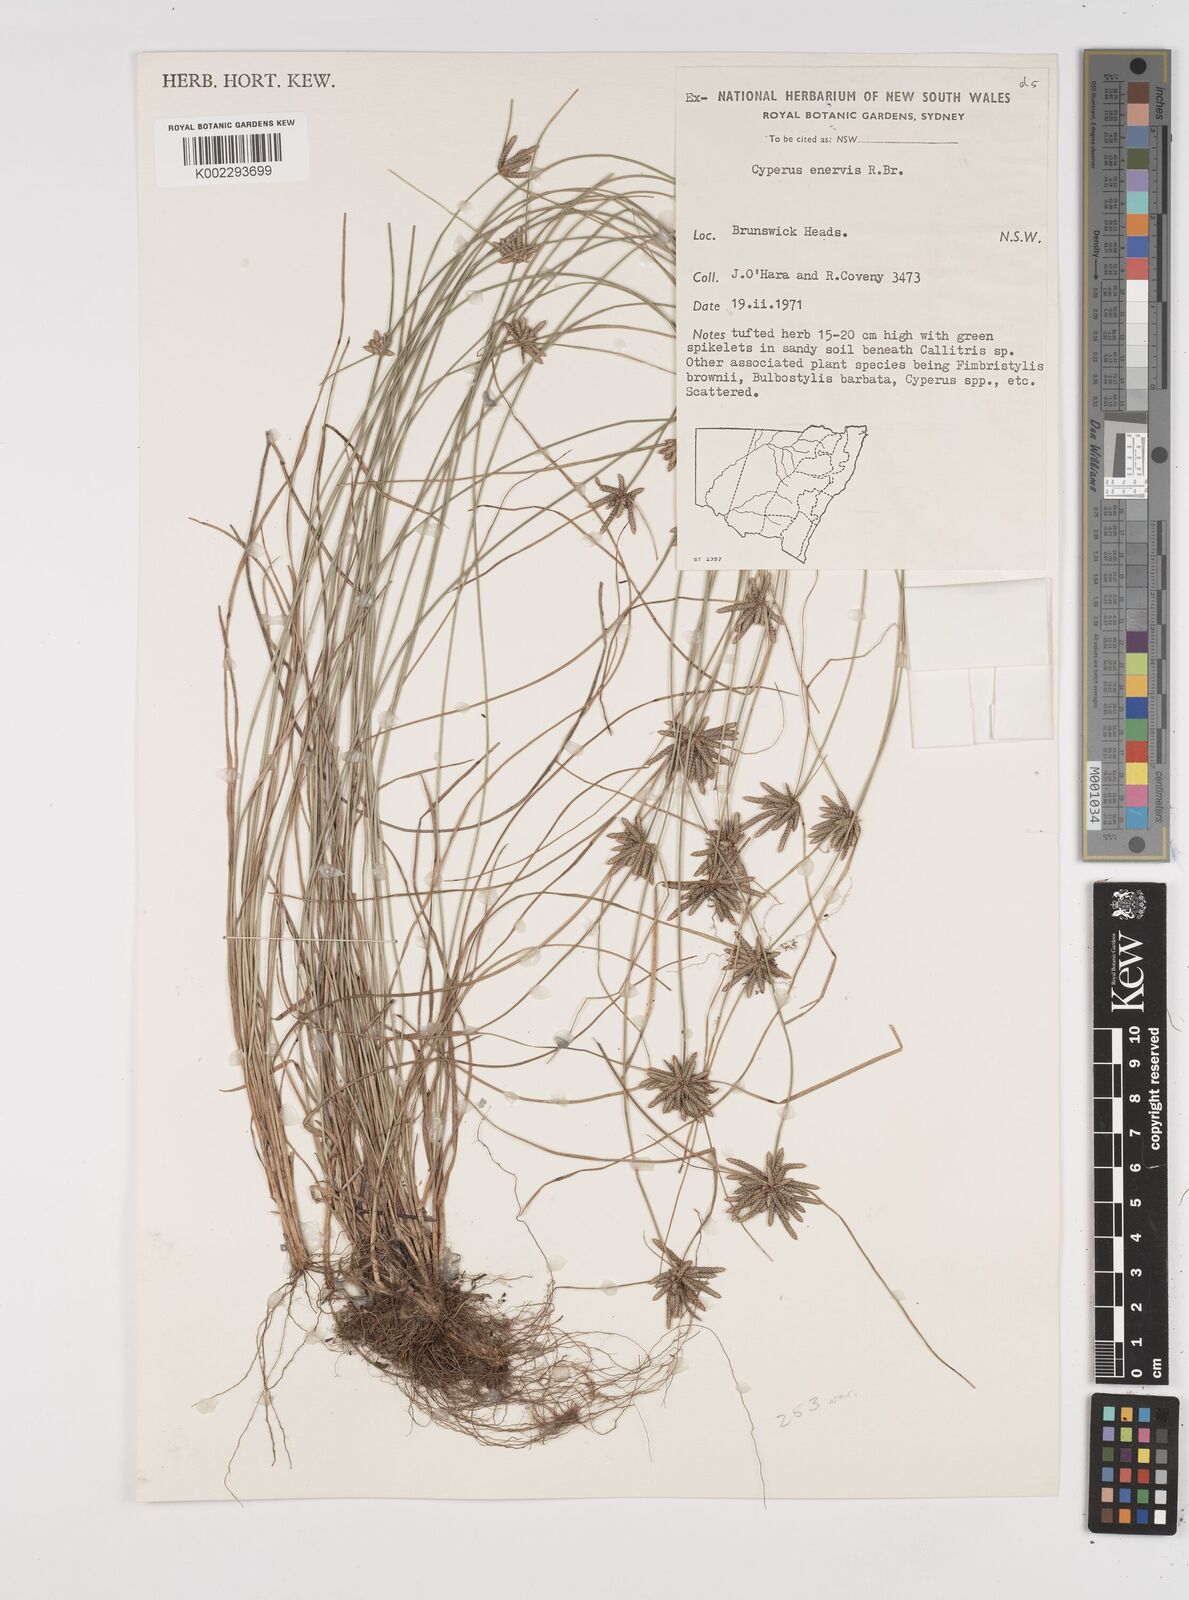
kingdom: Plantae
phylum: Tracheophyta
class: Liliopsida
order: Poales
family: Cyperaceae
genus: Cyperus
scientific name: Cyperus enervis
